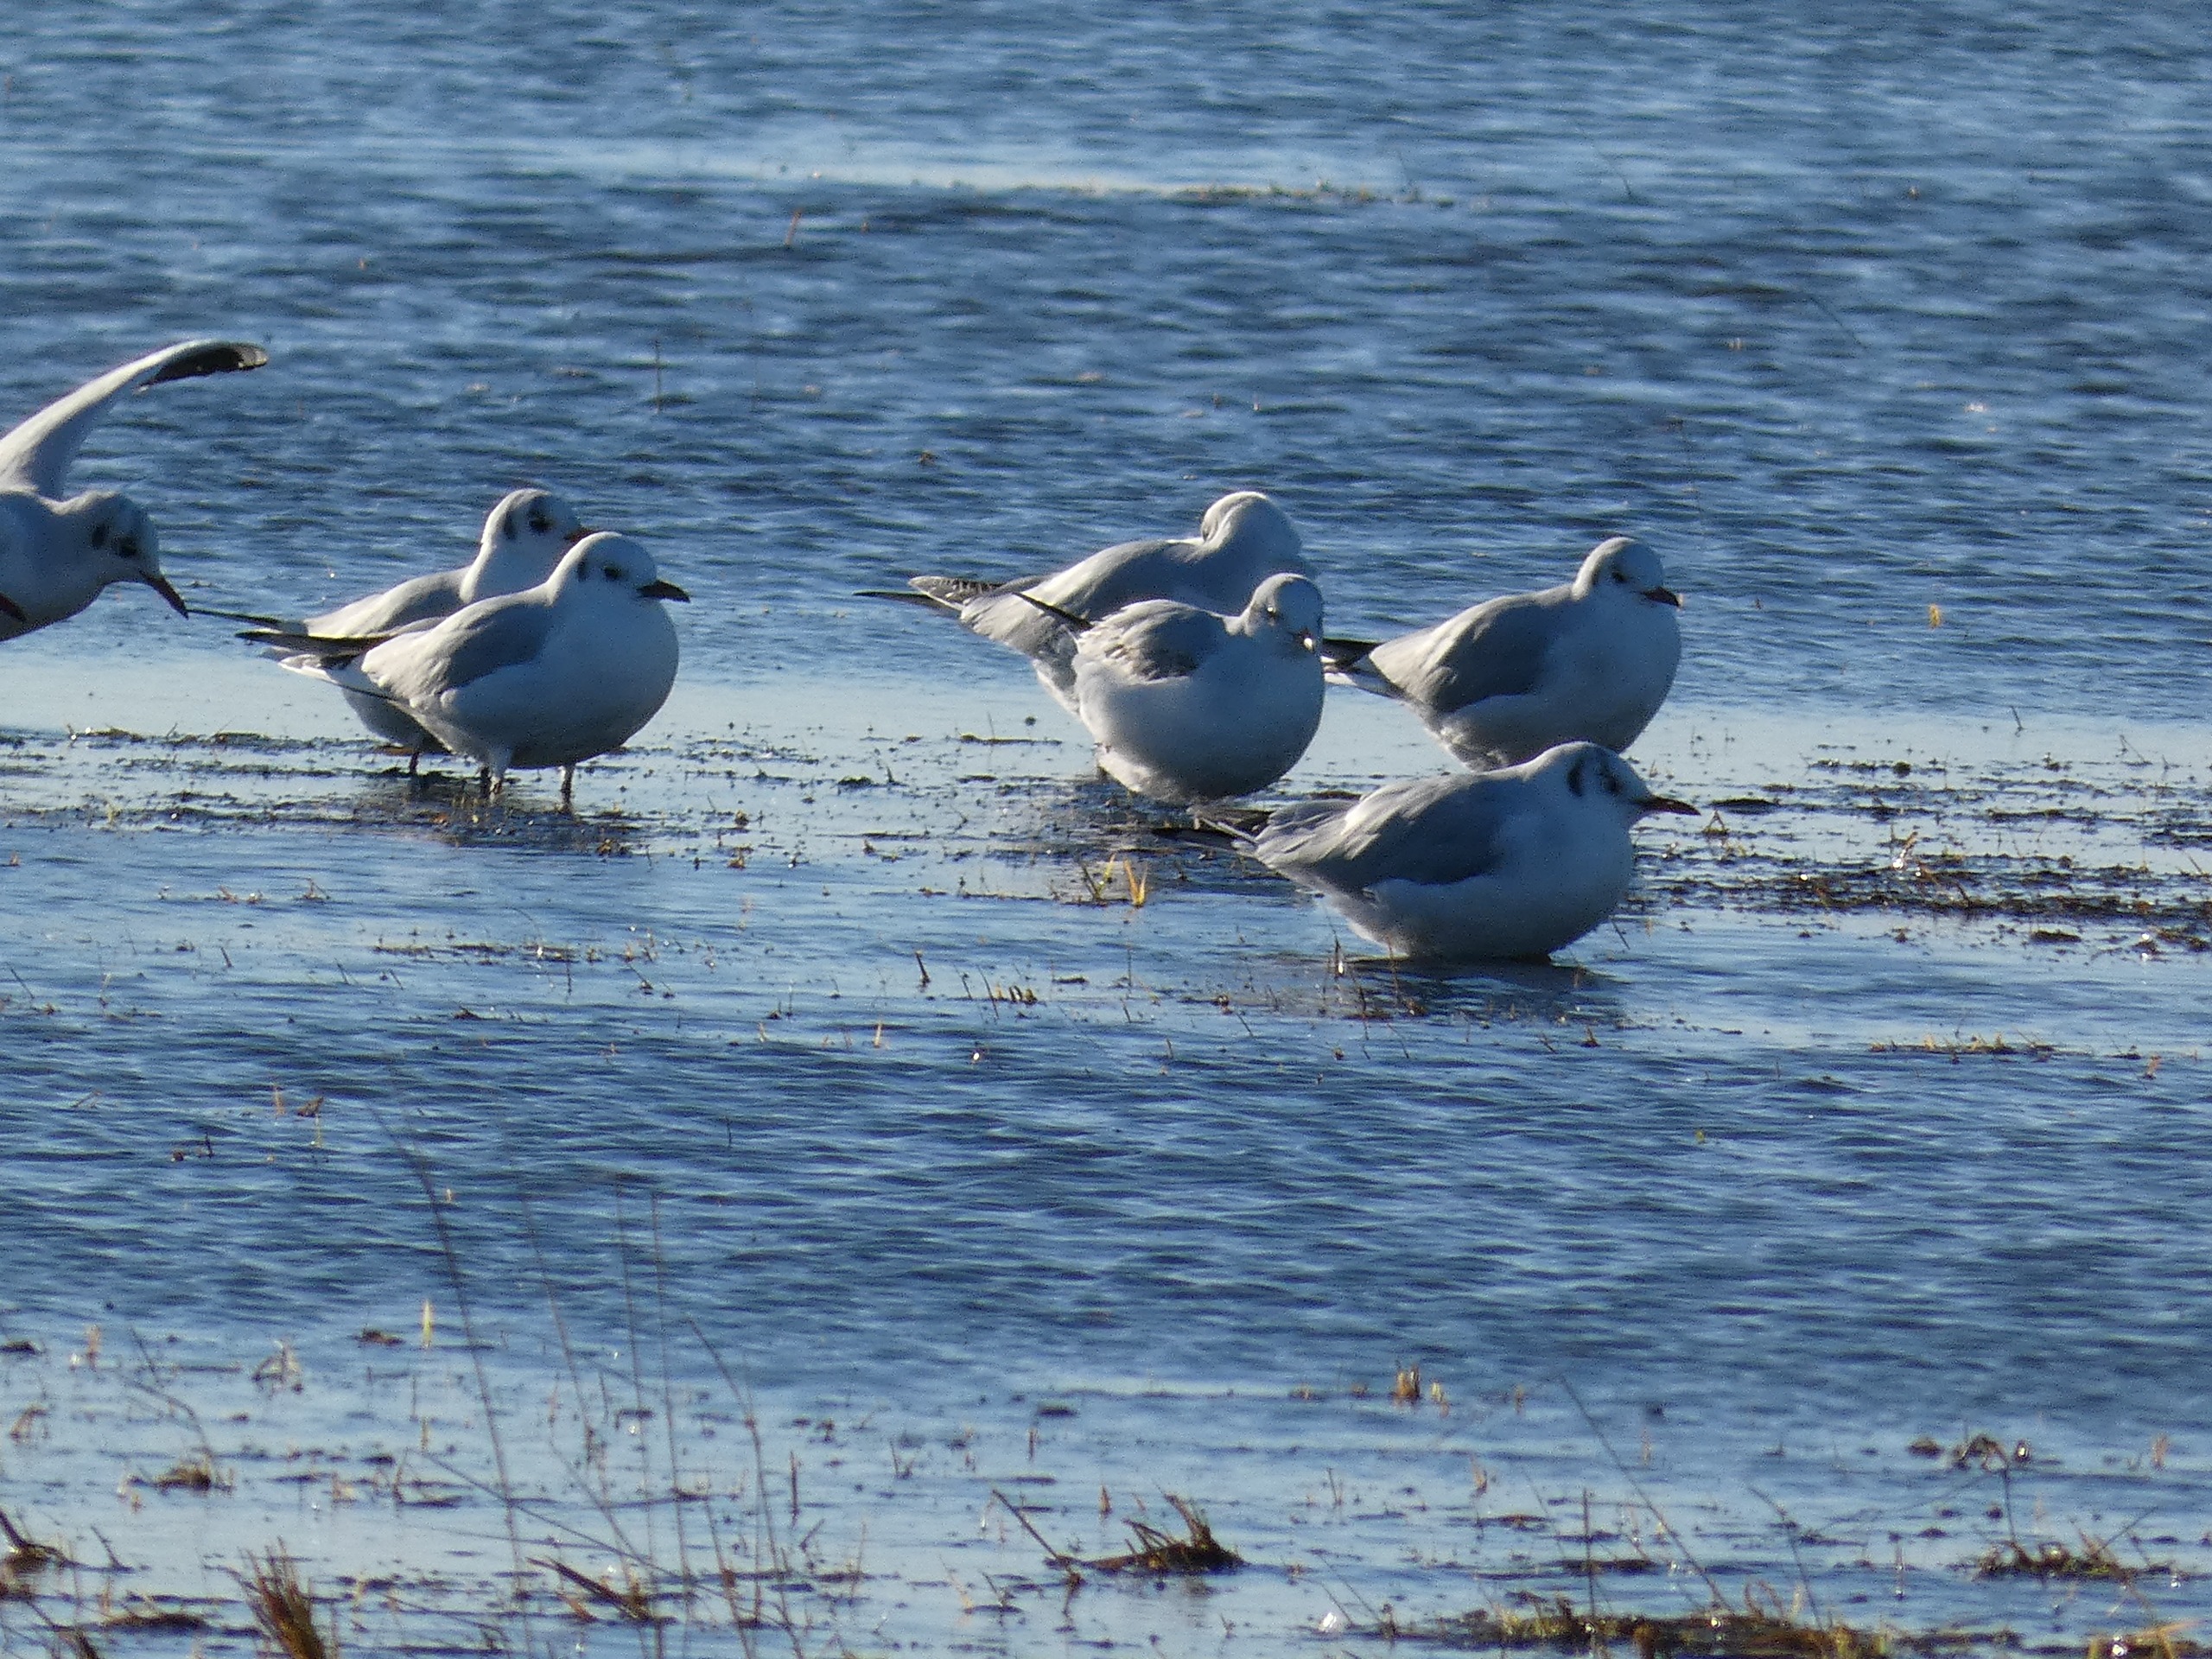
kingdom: Animalia
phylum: Chordata
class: Aves
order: Charadriiformes
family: Laridae
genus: Chroicocephalus
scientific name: Chroicocephalus ridibundus
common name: Hættemåge
